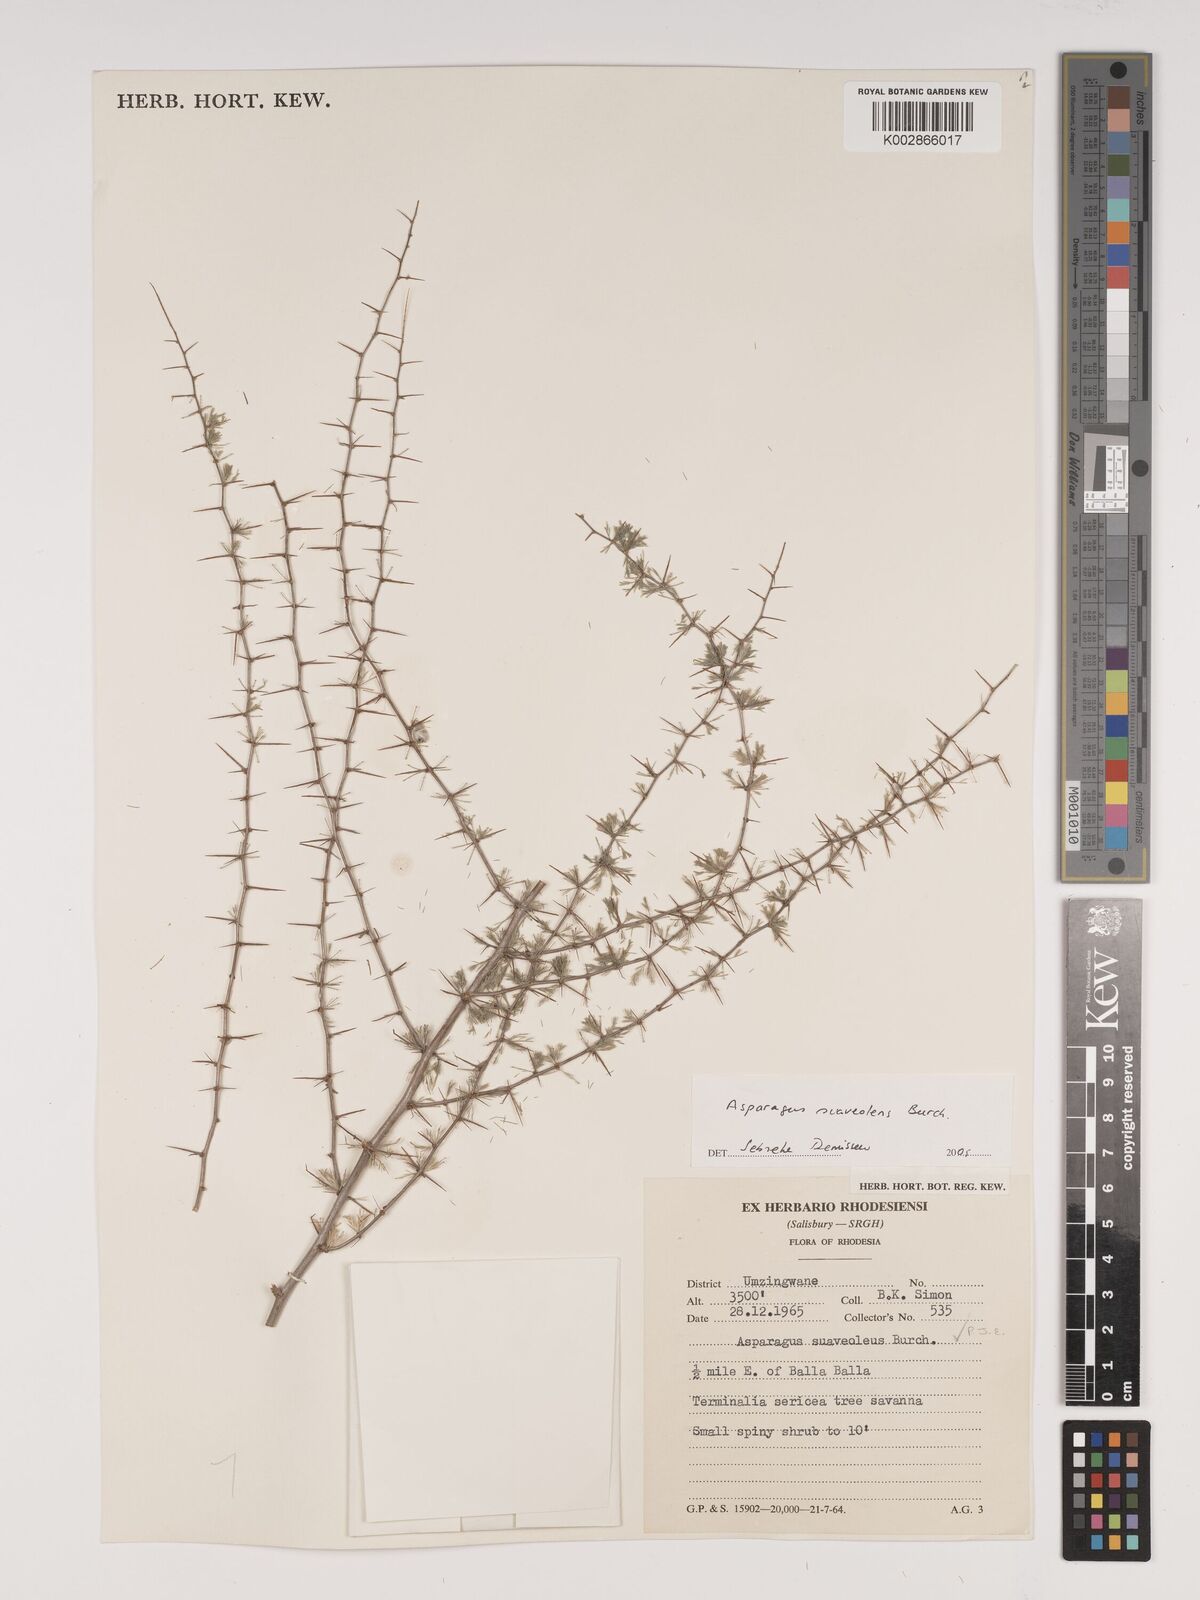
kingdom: Plantae
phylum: Tracheophyta
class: Liliopsida
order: Asparagales
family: Asparagaceae
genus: Asparagus
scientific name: Asparagus suaveolens
